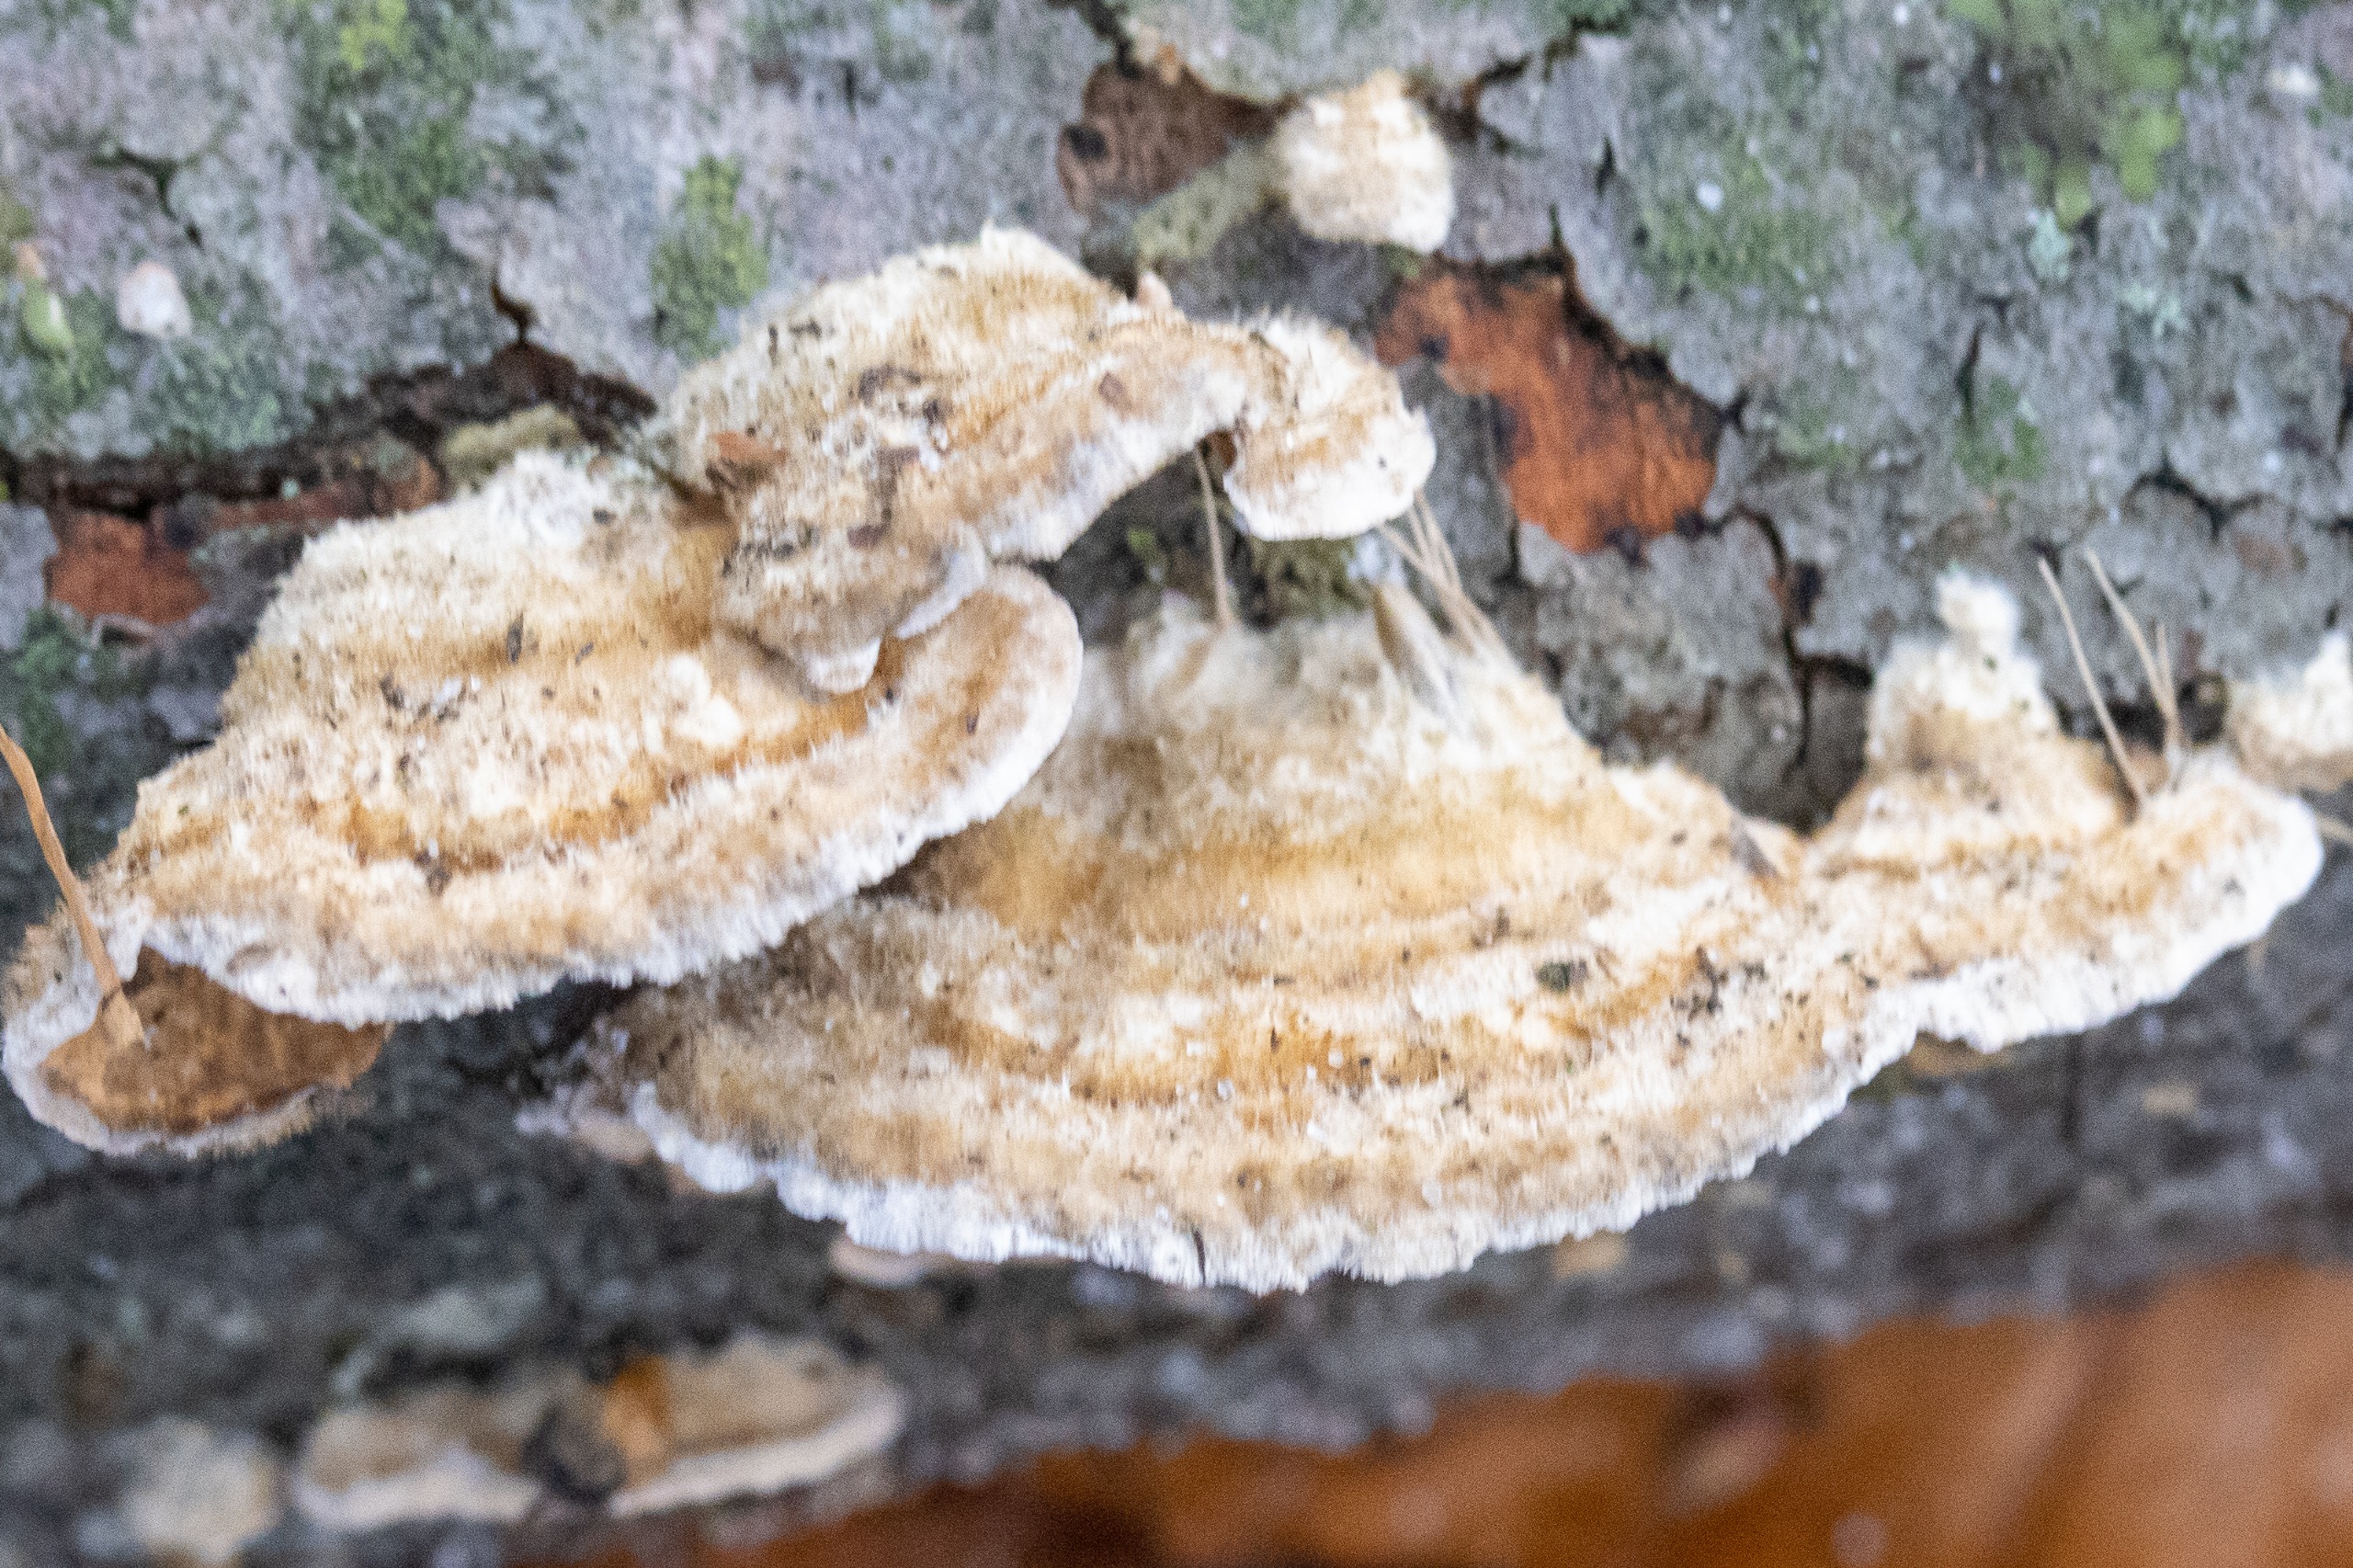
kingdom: Fungi
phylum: Basidiomycota
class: Agaricomycetes
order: Russulales
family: Stereaceae
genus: Stereum
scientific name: Stereum hirsutum
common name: Håret lædersvamp
